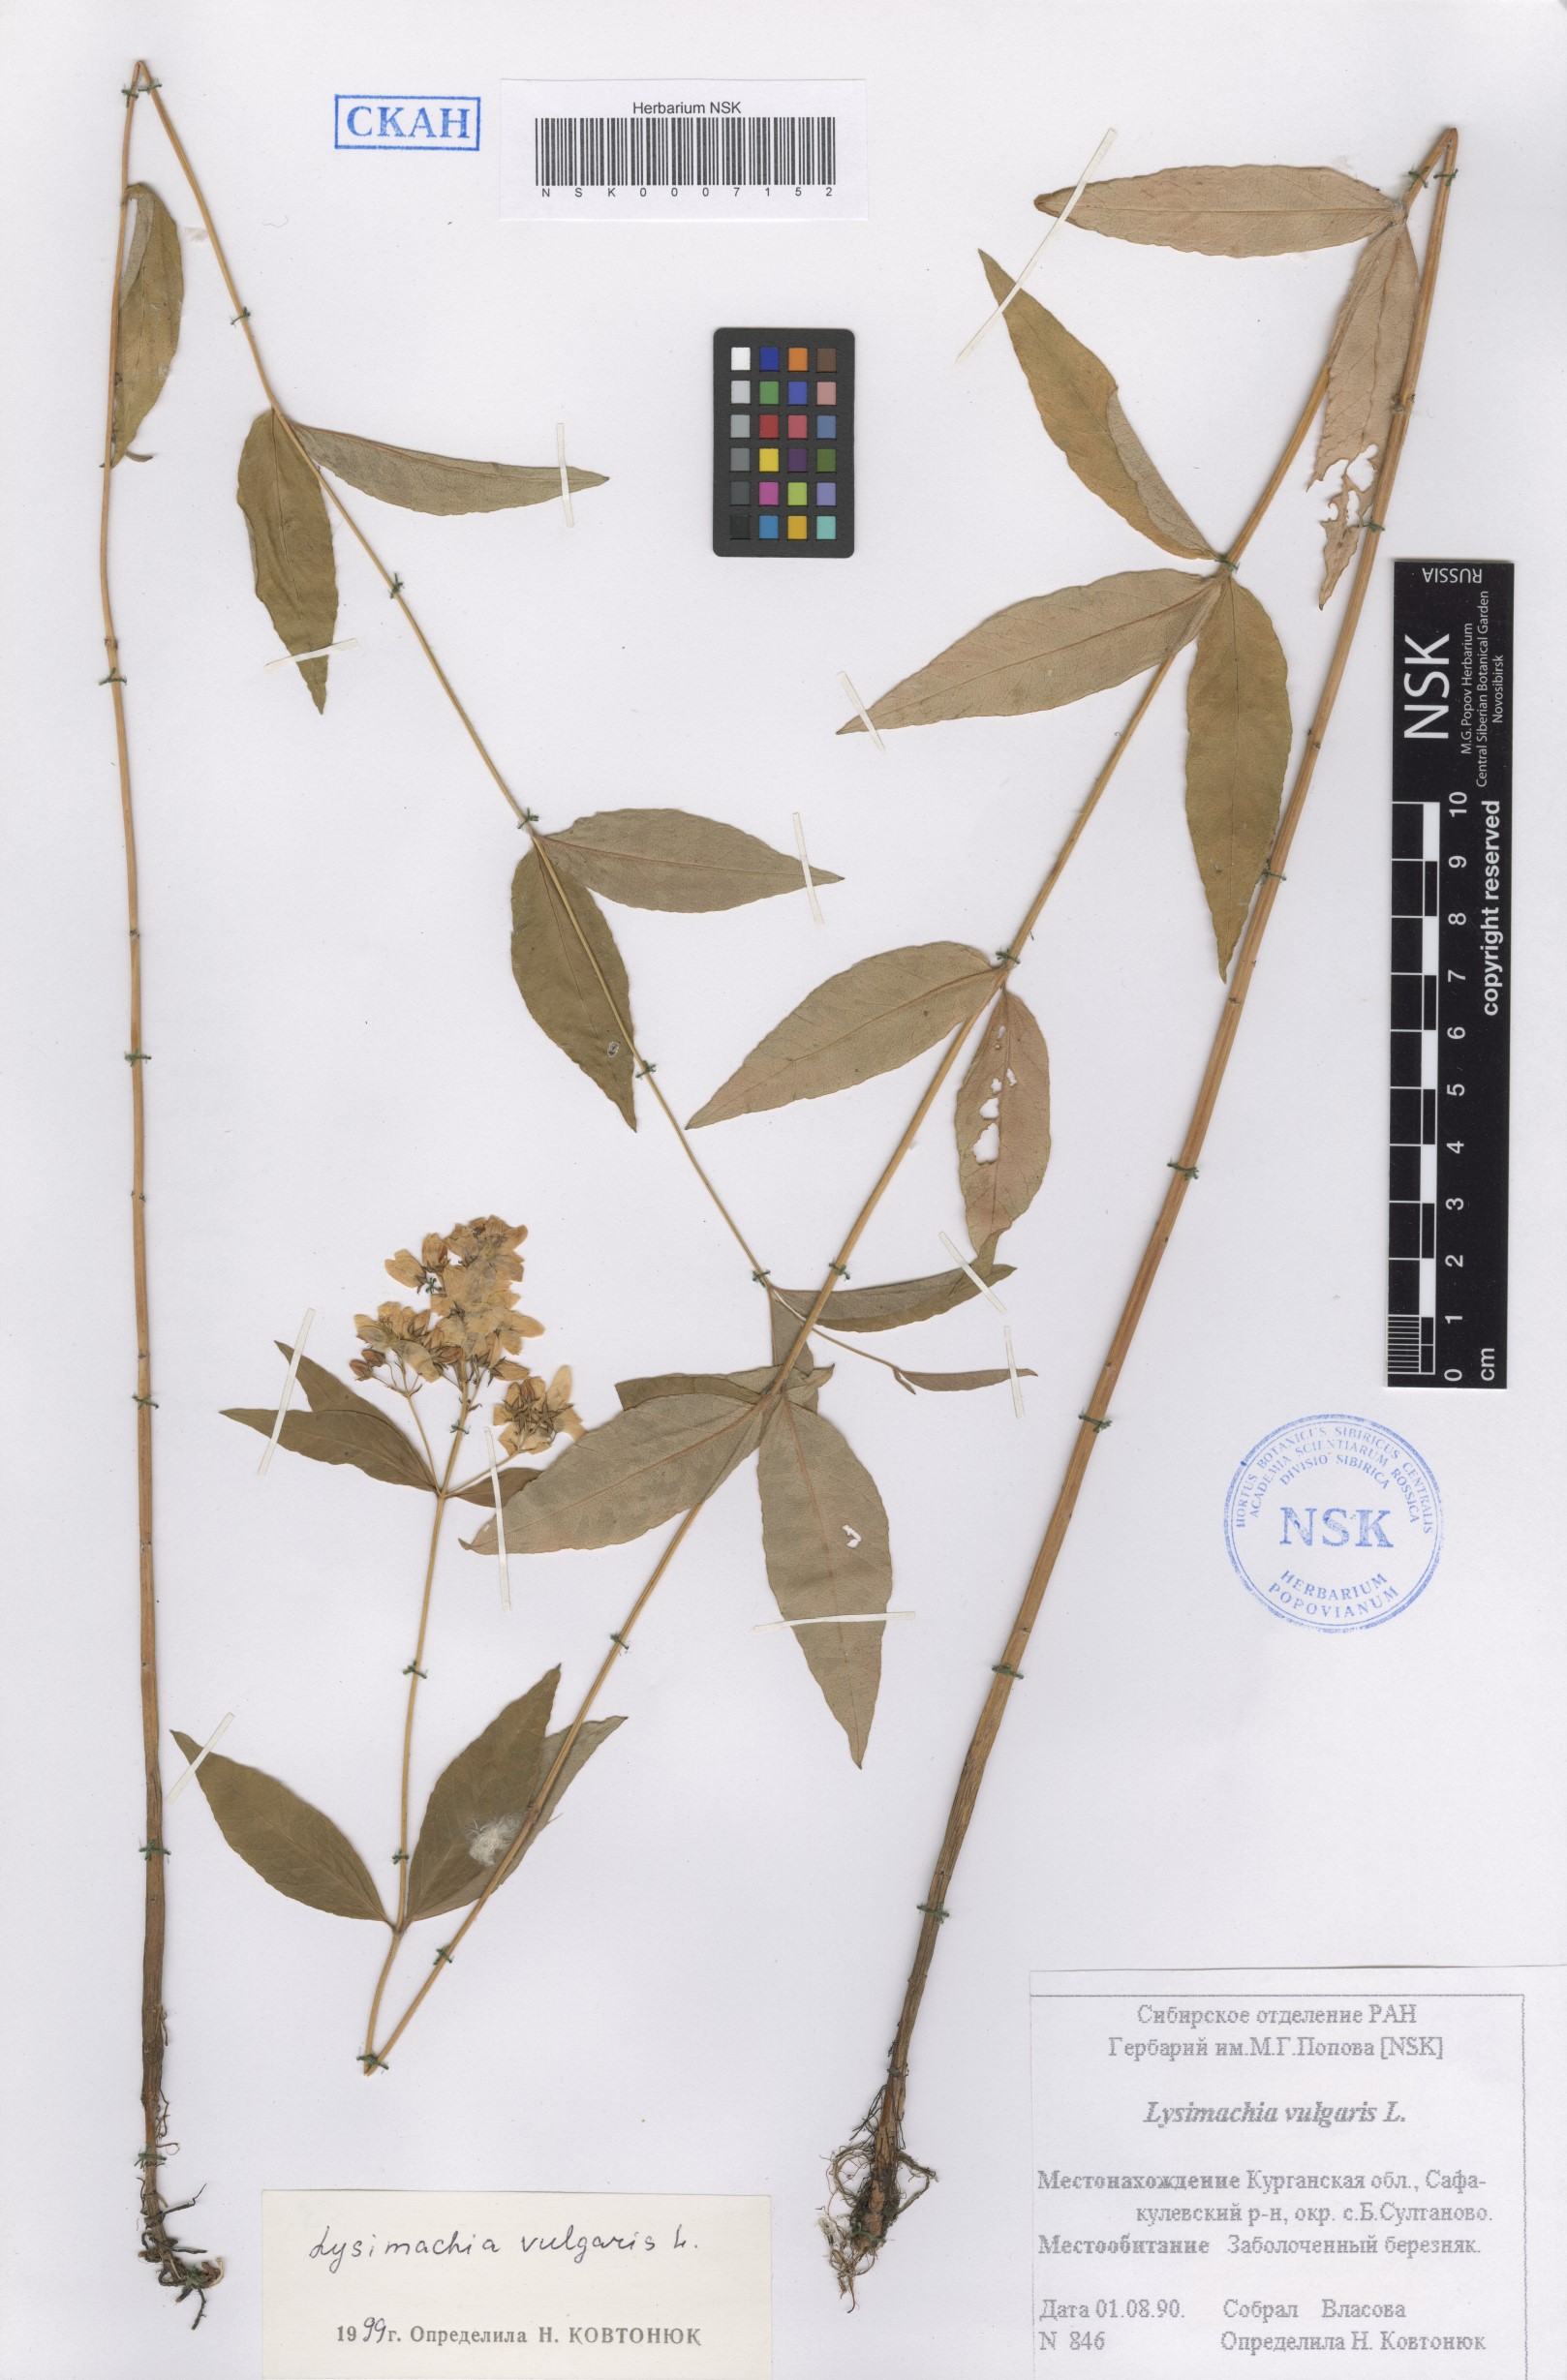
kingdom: Plantae
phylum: Tracheophyta
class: Magnoliopsida
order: Ericales
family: Primulaceae
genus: Lysimachia
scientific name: Lysimachia vulgaris
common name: Yellow loosestrife
